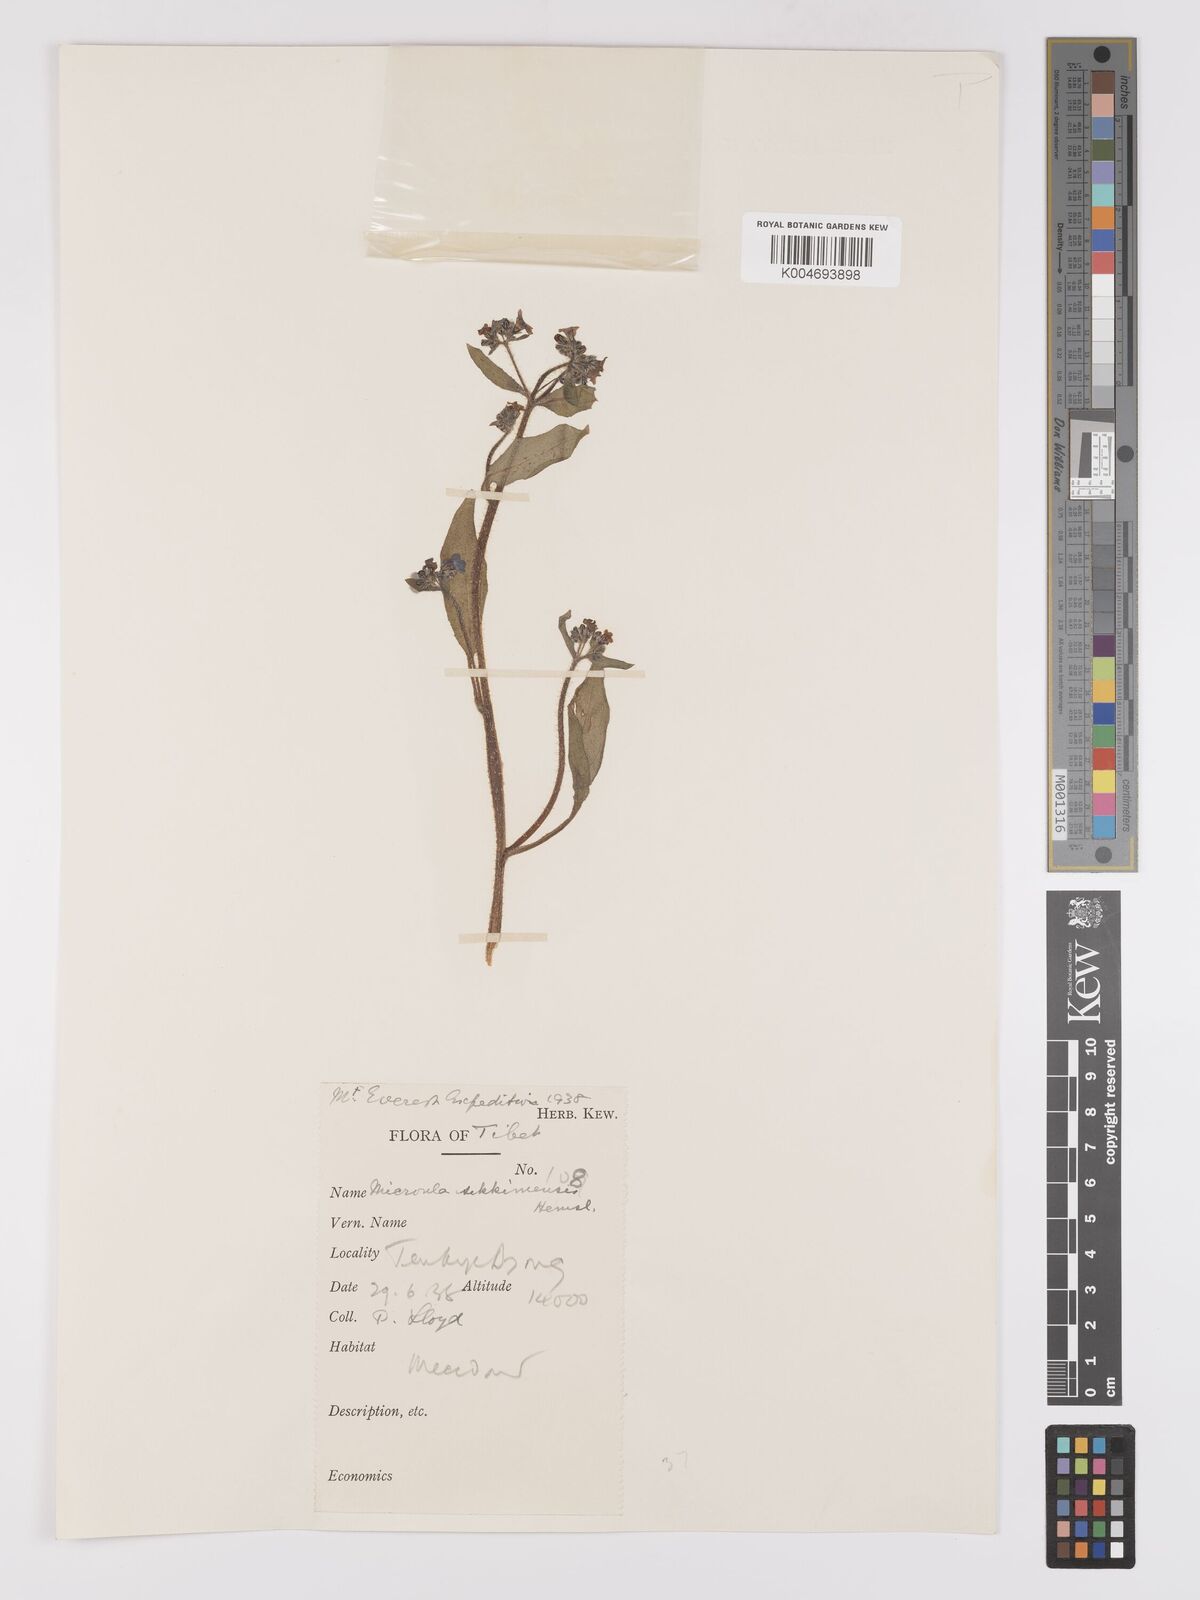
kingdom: Plantae
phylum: Tracheophyta
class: Magnoliopsida
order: Boraginales
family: Boraginaceae
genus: Microula
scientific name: Microula sikkimensis
